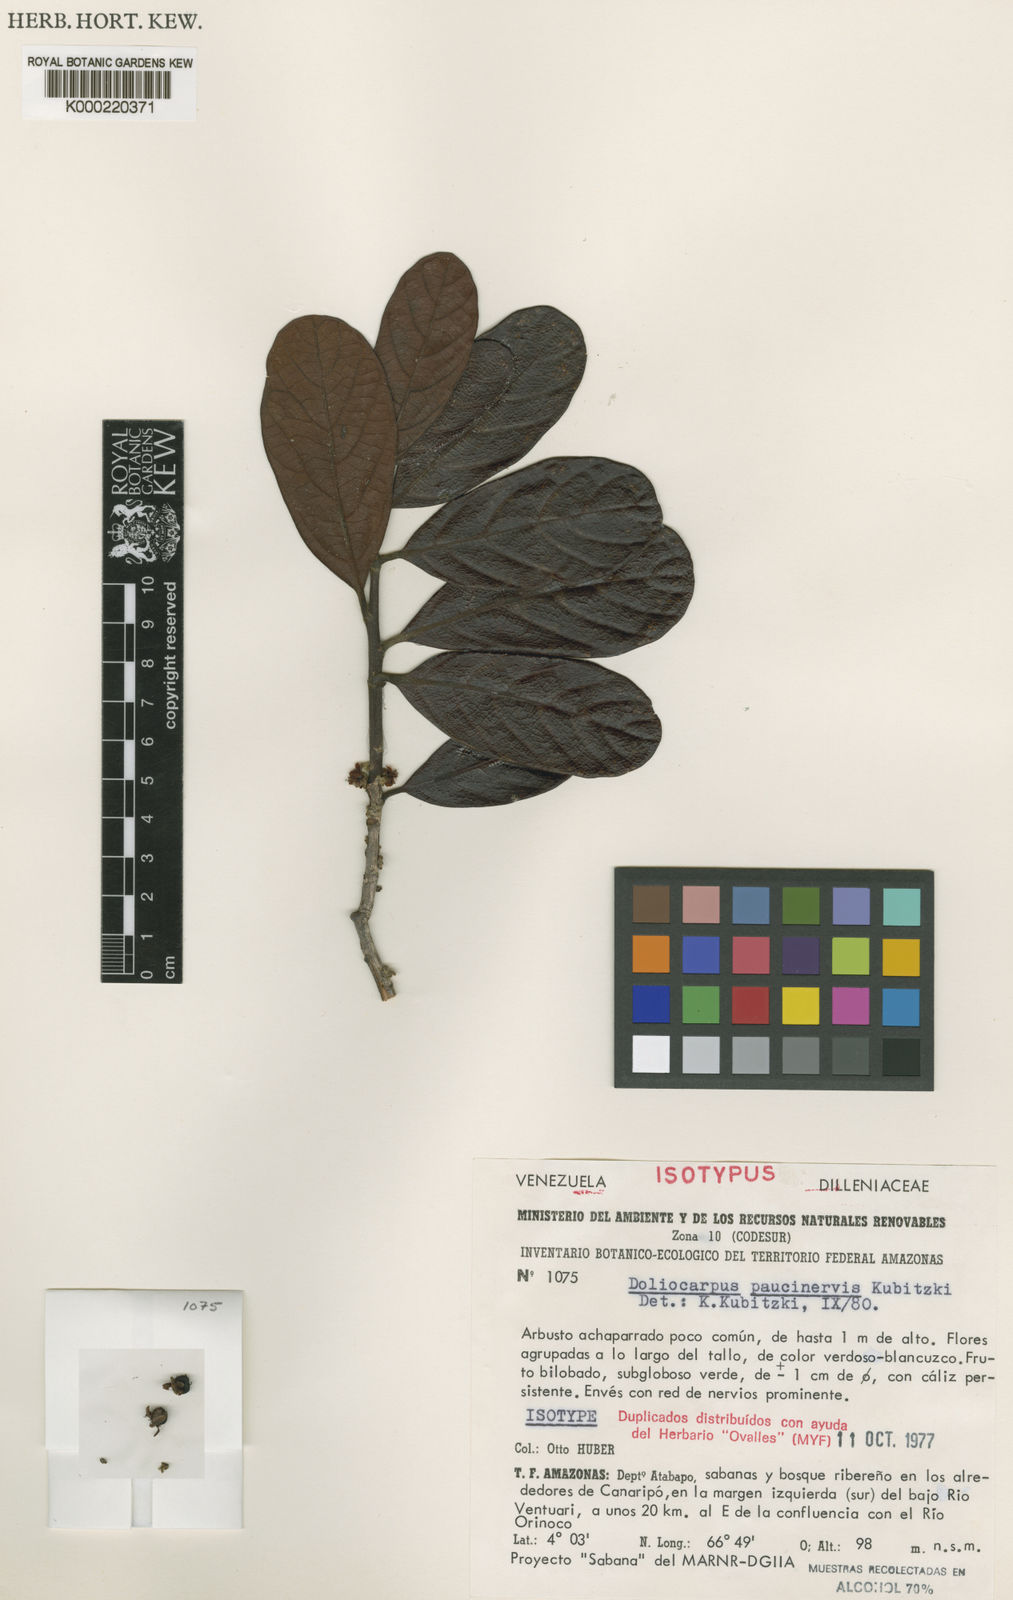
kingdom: Plantae
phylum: Tracheophyta
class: Magnoliopsida
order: Dilleniales
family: Dilleniaceae
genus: Doliocarpus
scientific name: Doliocarpus paucinervis
